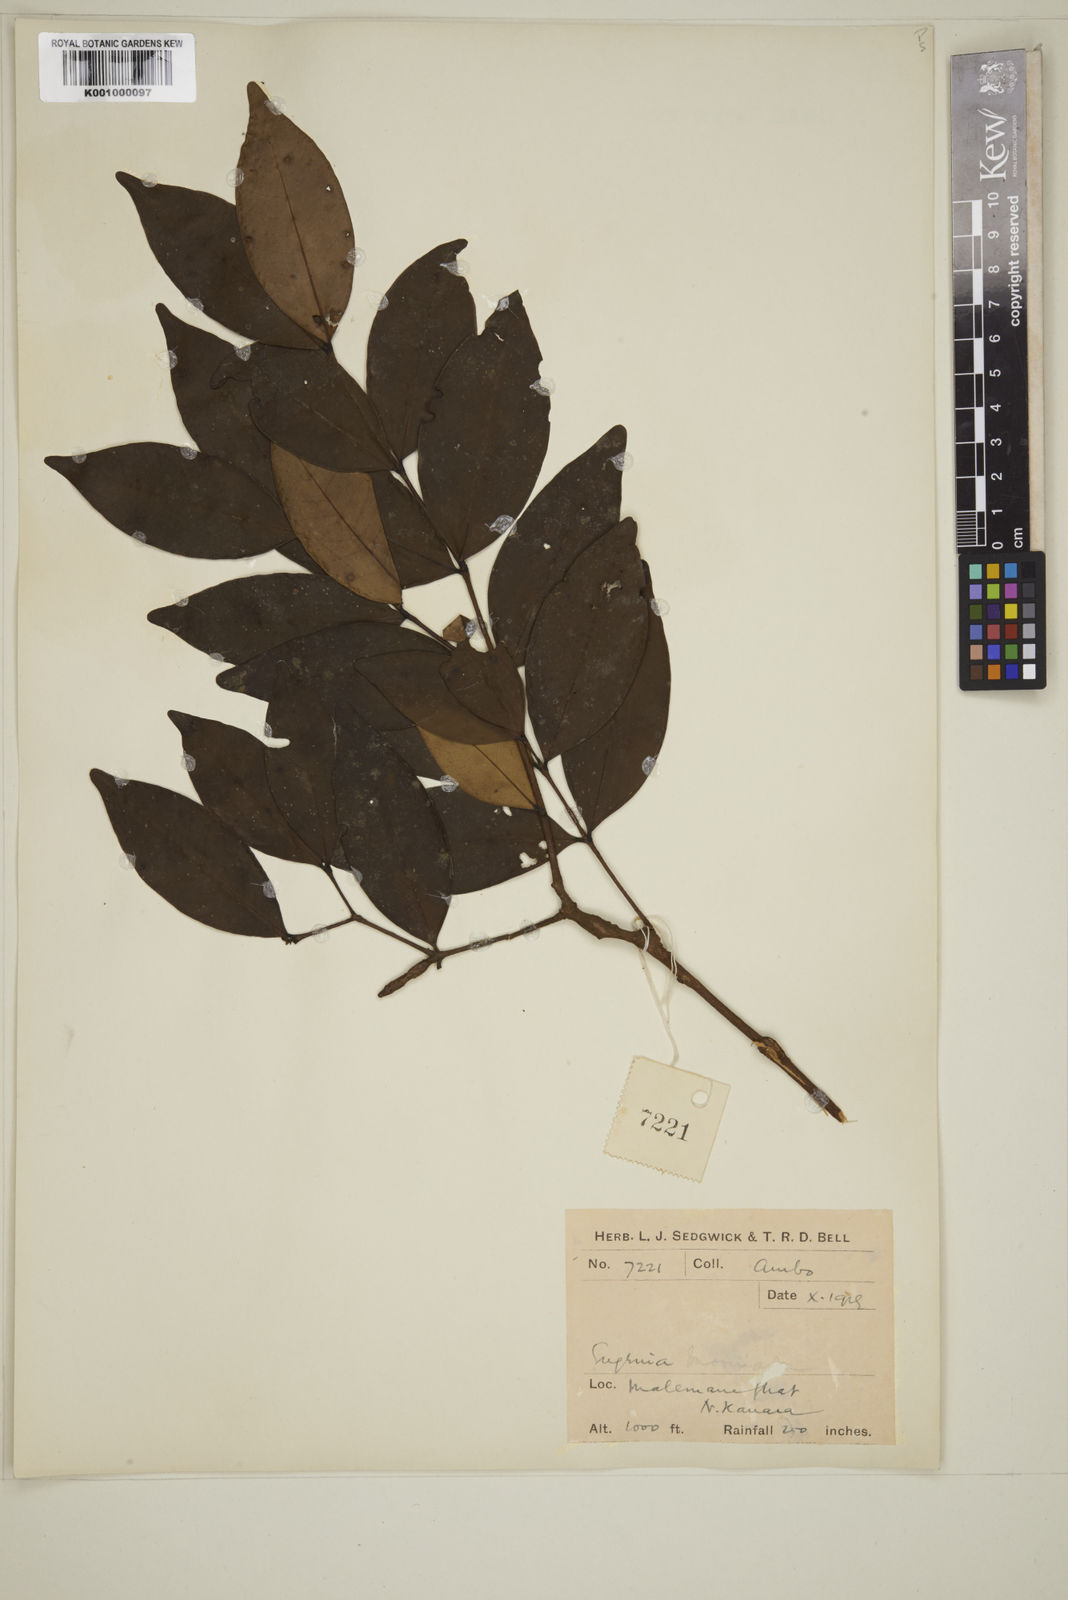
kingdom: Plantae
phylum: Tracheophyta
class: Magnoliopsida
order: Myrtales
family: Myrtaceae
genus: Eugenia
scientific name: Eugenia thwaitesii
